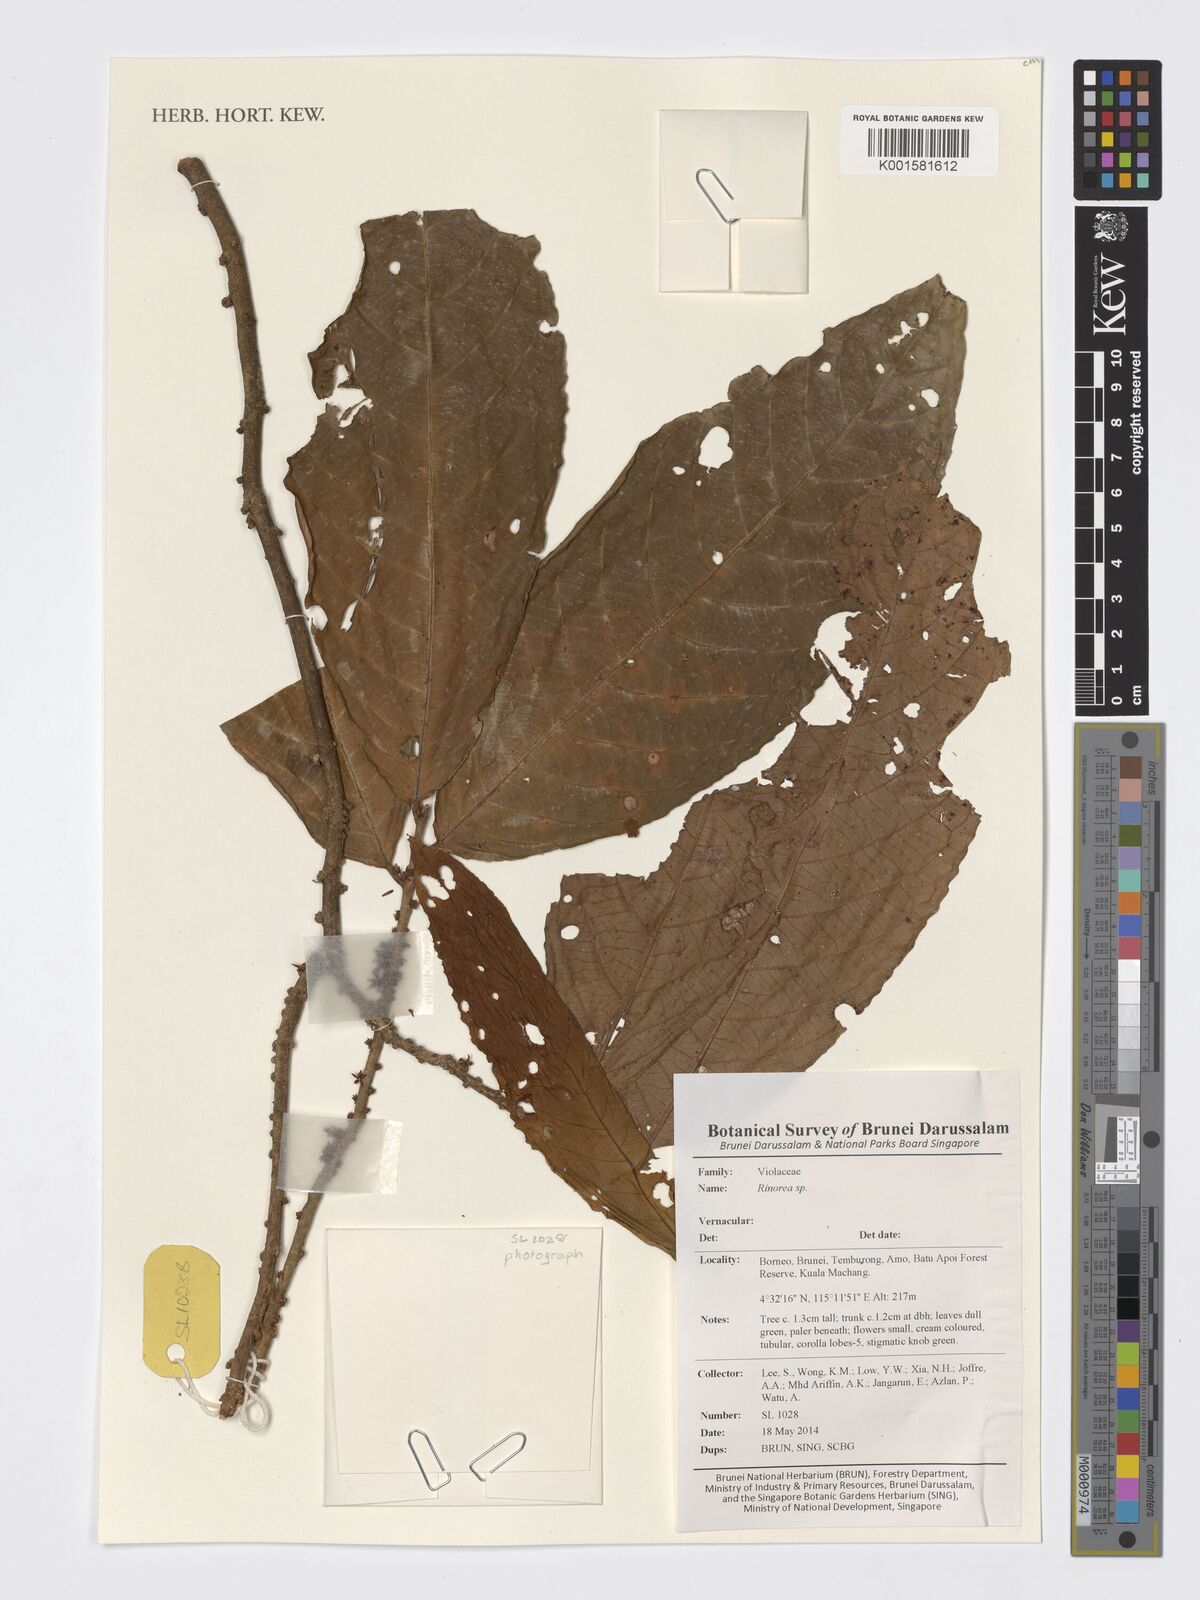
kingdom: Plantae
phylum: Tracheophyta
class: Magnoliopsida
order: Malpighiales
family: Violaceae
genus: Rinorea
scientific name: Rinorea
